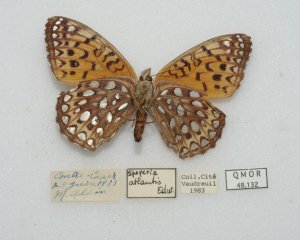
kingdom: Animalia
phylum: Arthropoda
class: Insecta
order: Lepidoptera
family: Nymphalidae
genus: Speyeria
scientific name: Speyeria atlantis
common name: Atlantis Fritillary
